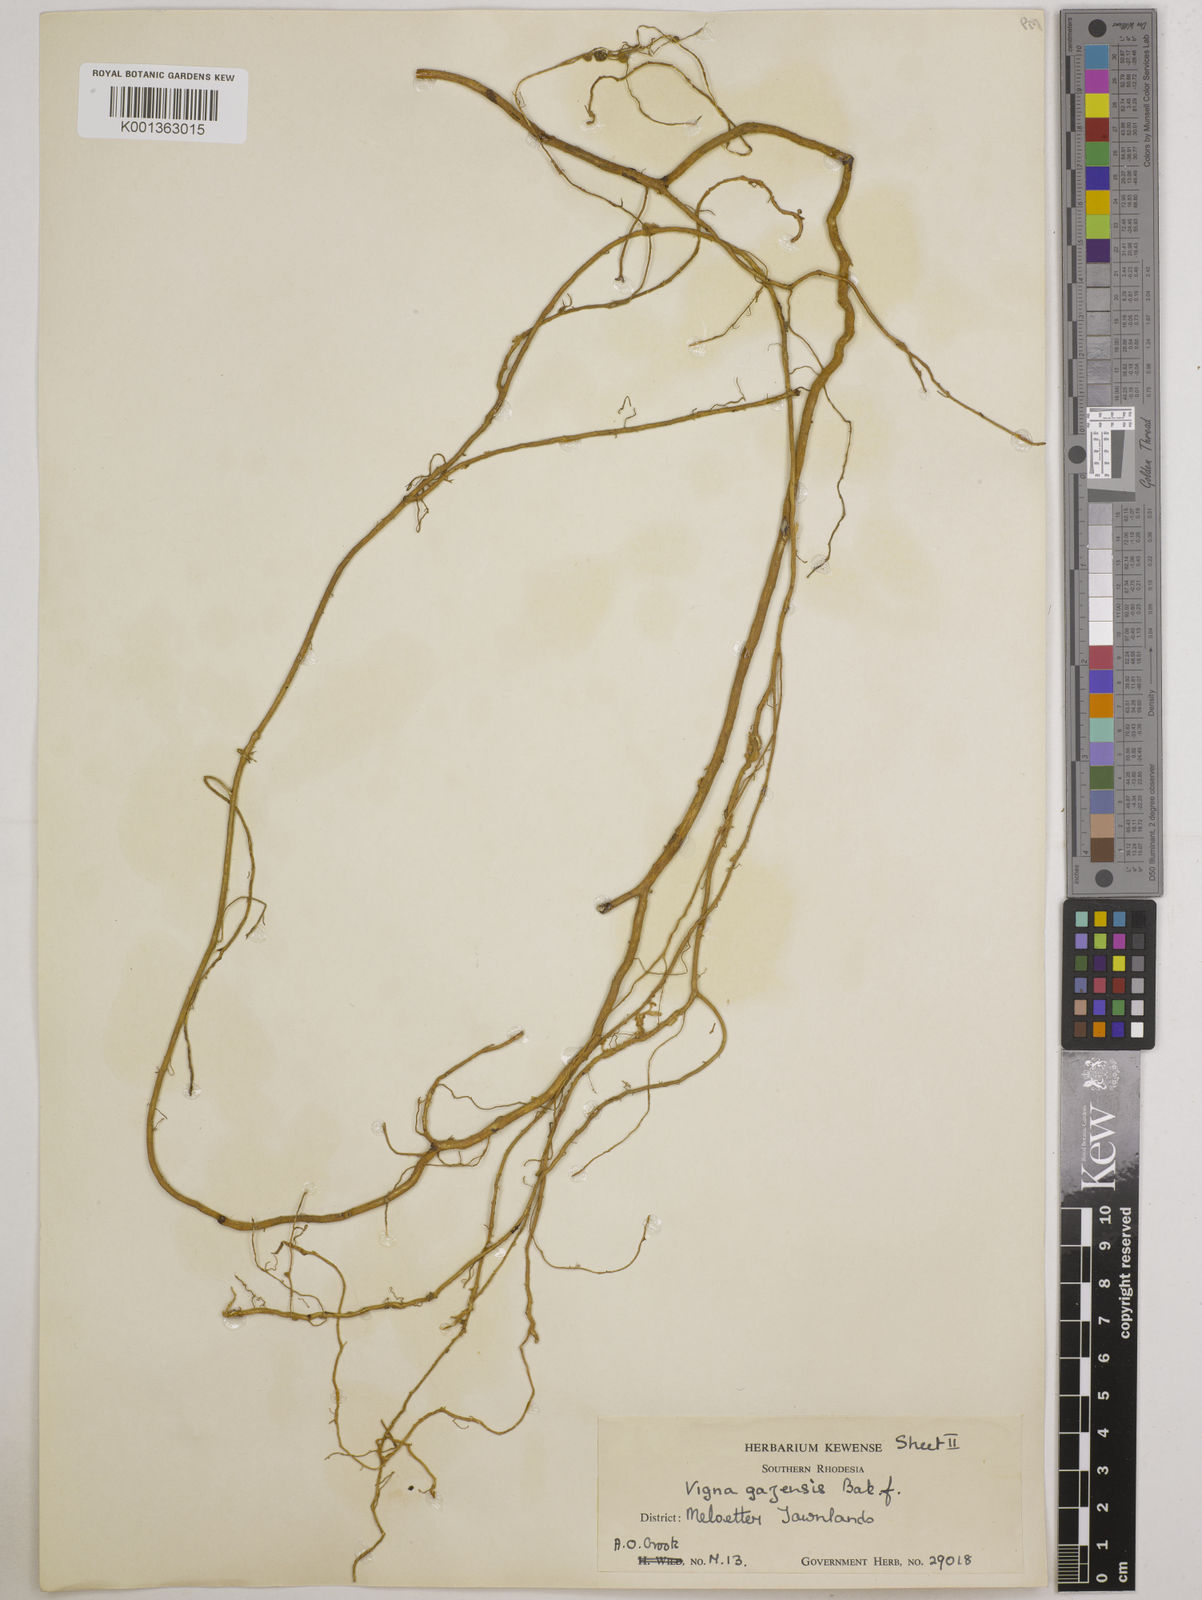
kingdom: Plantae
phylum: Tracheophyta
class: Magnoliopsida
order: Fabales
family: Fabaceae
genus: Vigna
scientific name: Vigna gazensis
